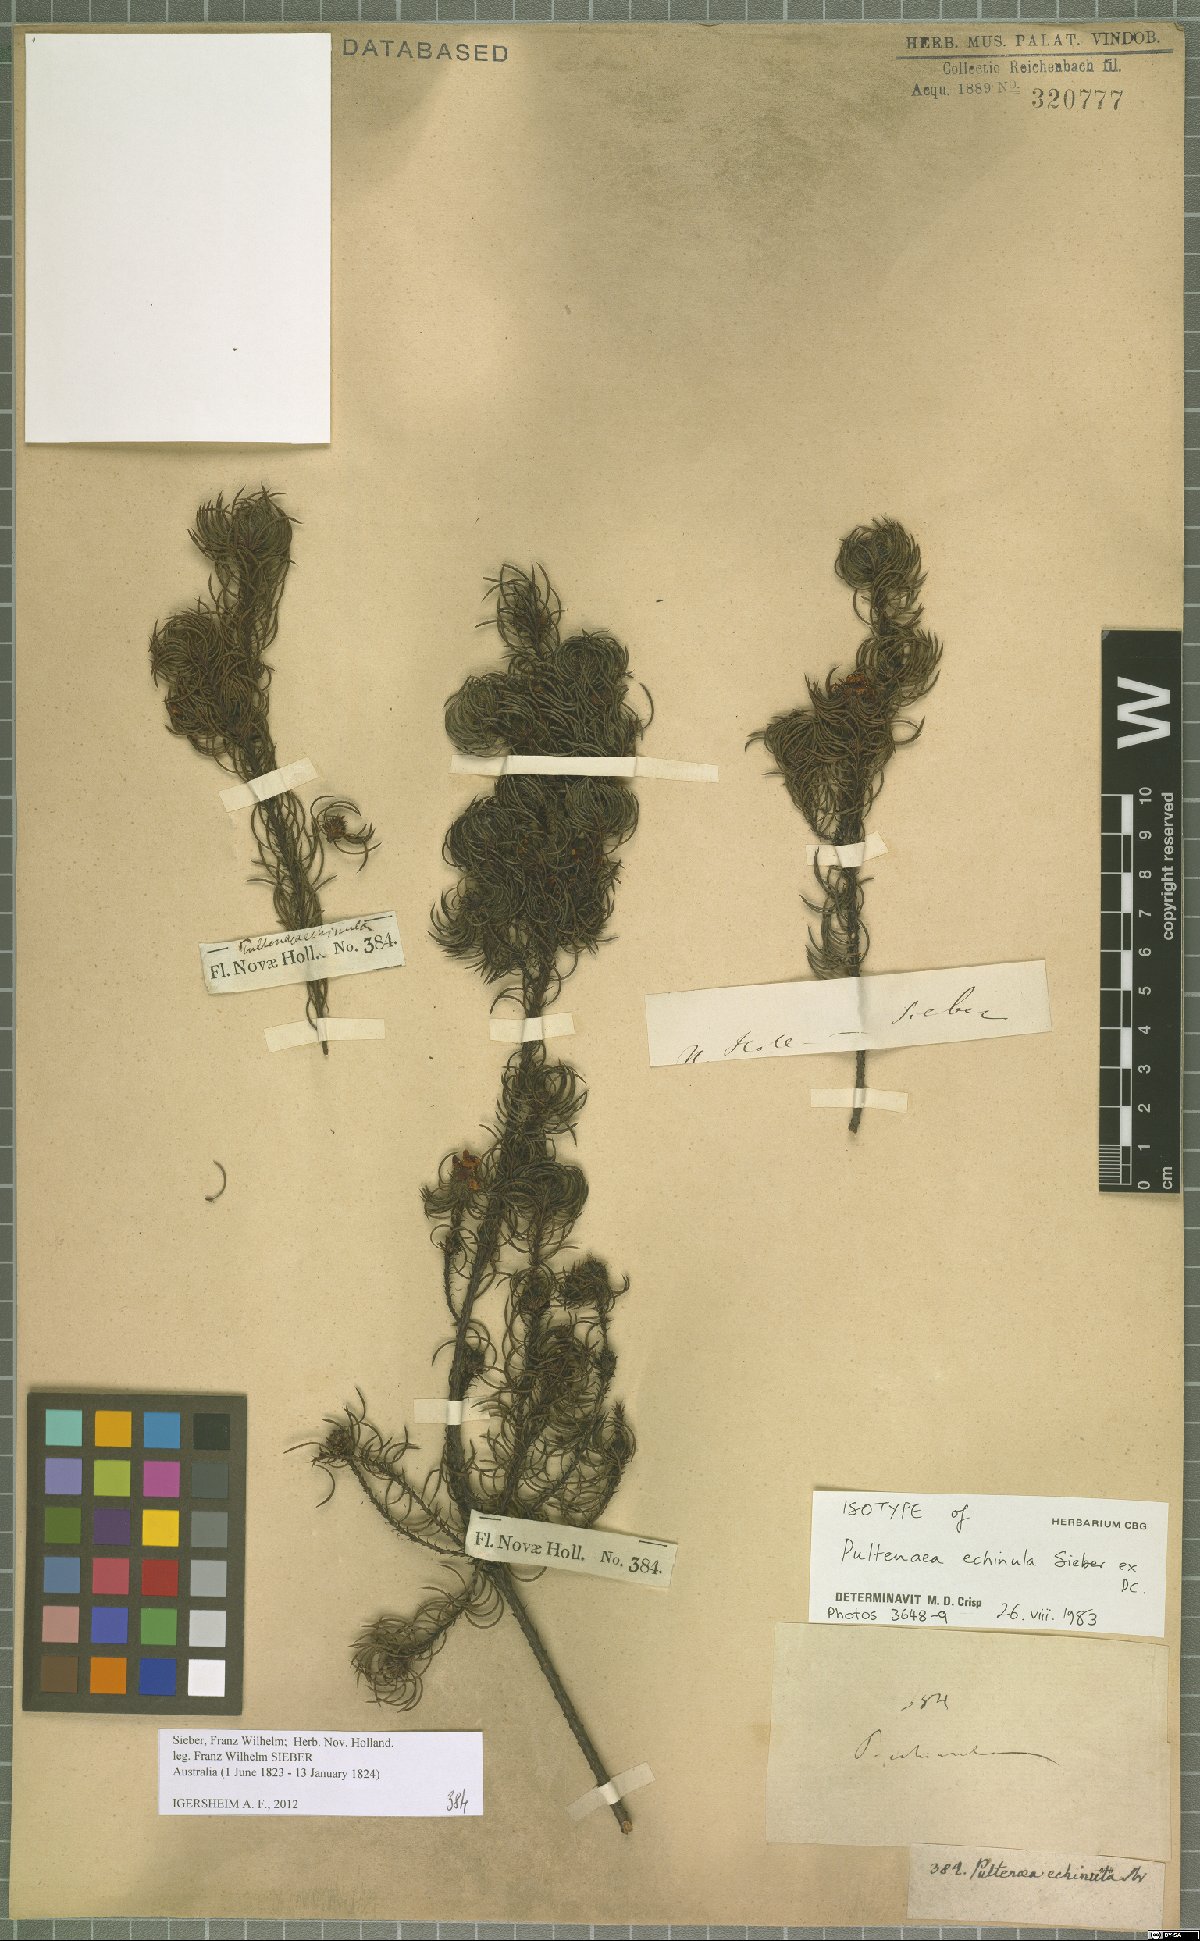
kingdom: Plantae
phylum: Tracheophyta
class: Magnoliopsida
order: Fabales
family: Fabaceae
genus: Pultenaea
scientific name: Pultenaea echinula
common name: Curved bush-pea
